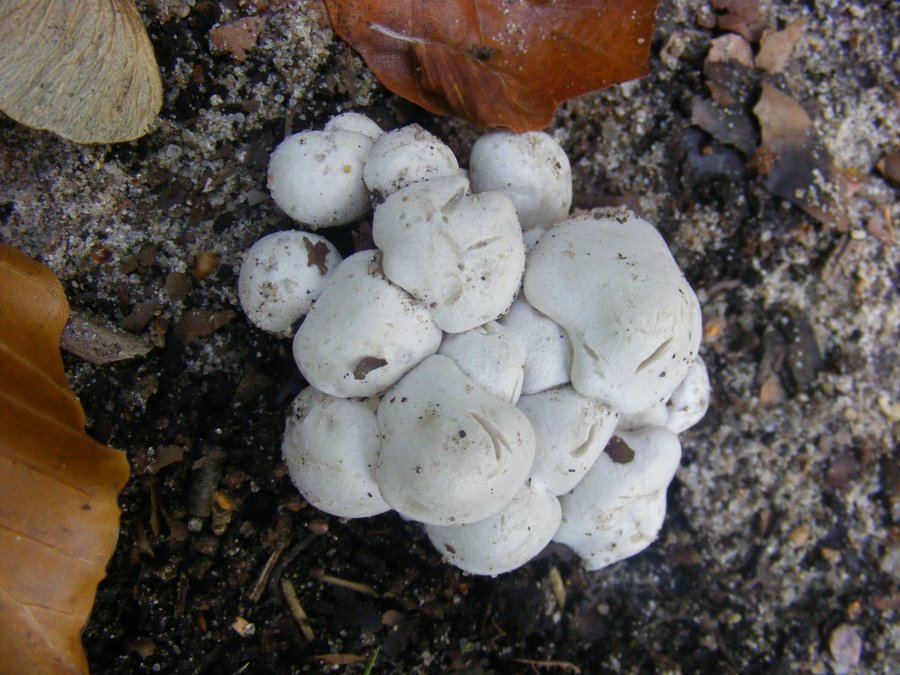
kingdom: Fungi
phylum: Basidiomycota
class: Agaricomycetes
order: Agaricales
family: Tricholomataceae
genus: Leucocybe
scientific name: Leucocybe connata
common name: knippe-tragthat
